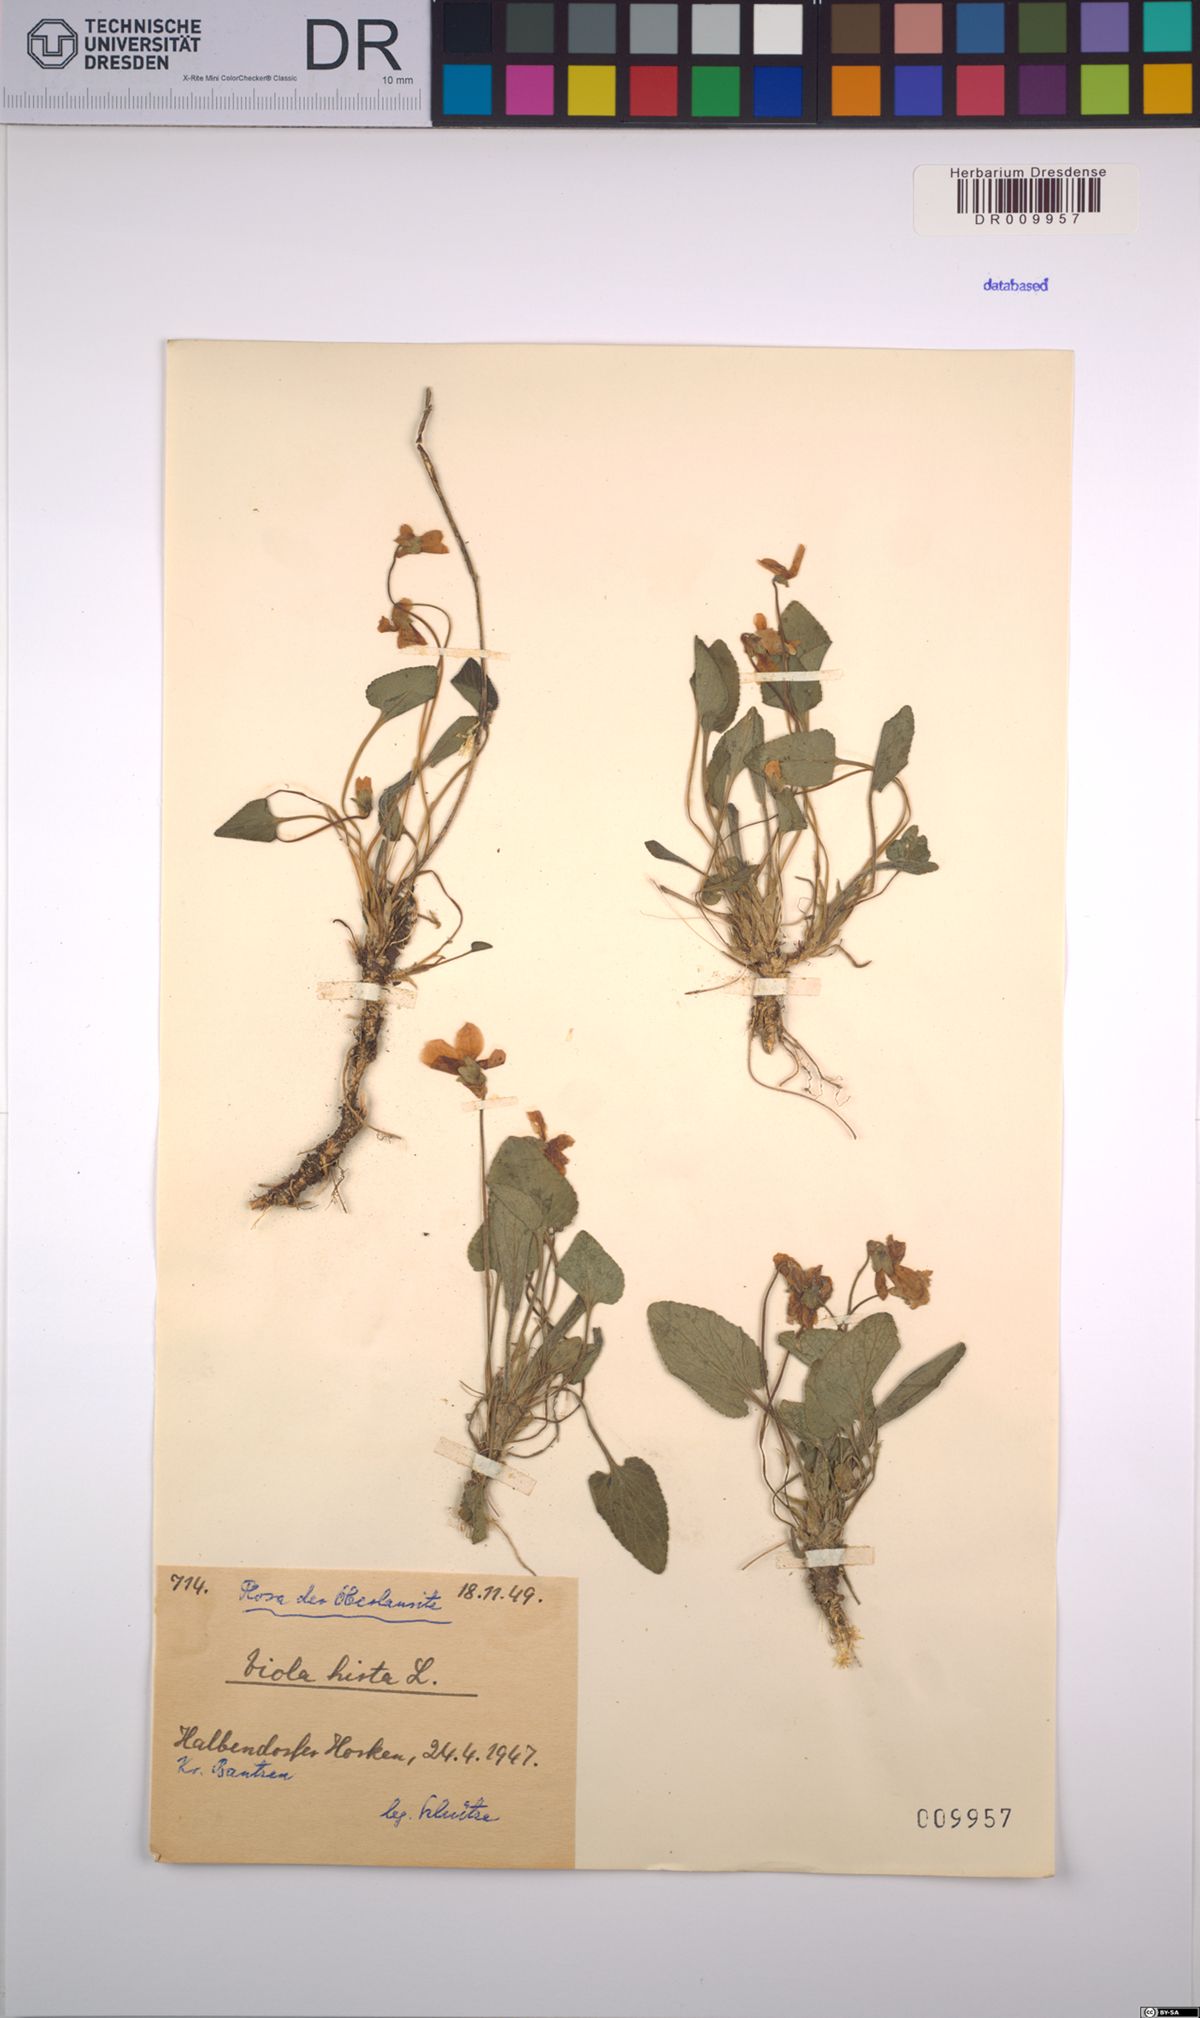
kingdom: Plantae
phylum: Tracheophyta
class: Magnoliopsida
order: Malpighiales
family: Violaceae
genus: Viola
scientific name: Viola hirta
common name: Hairy violet
